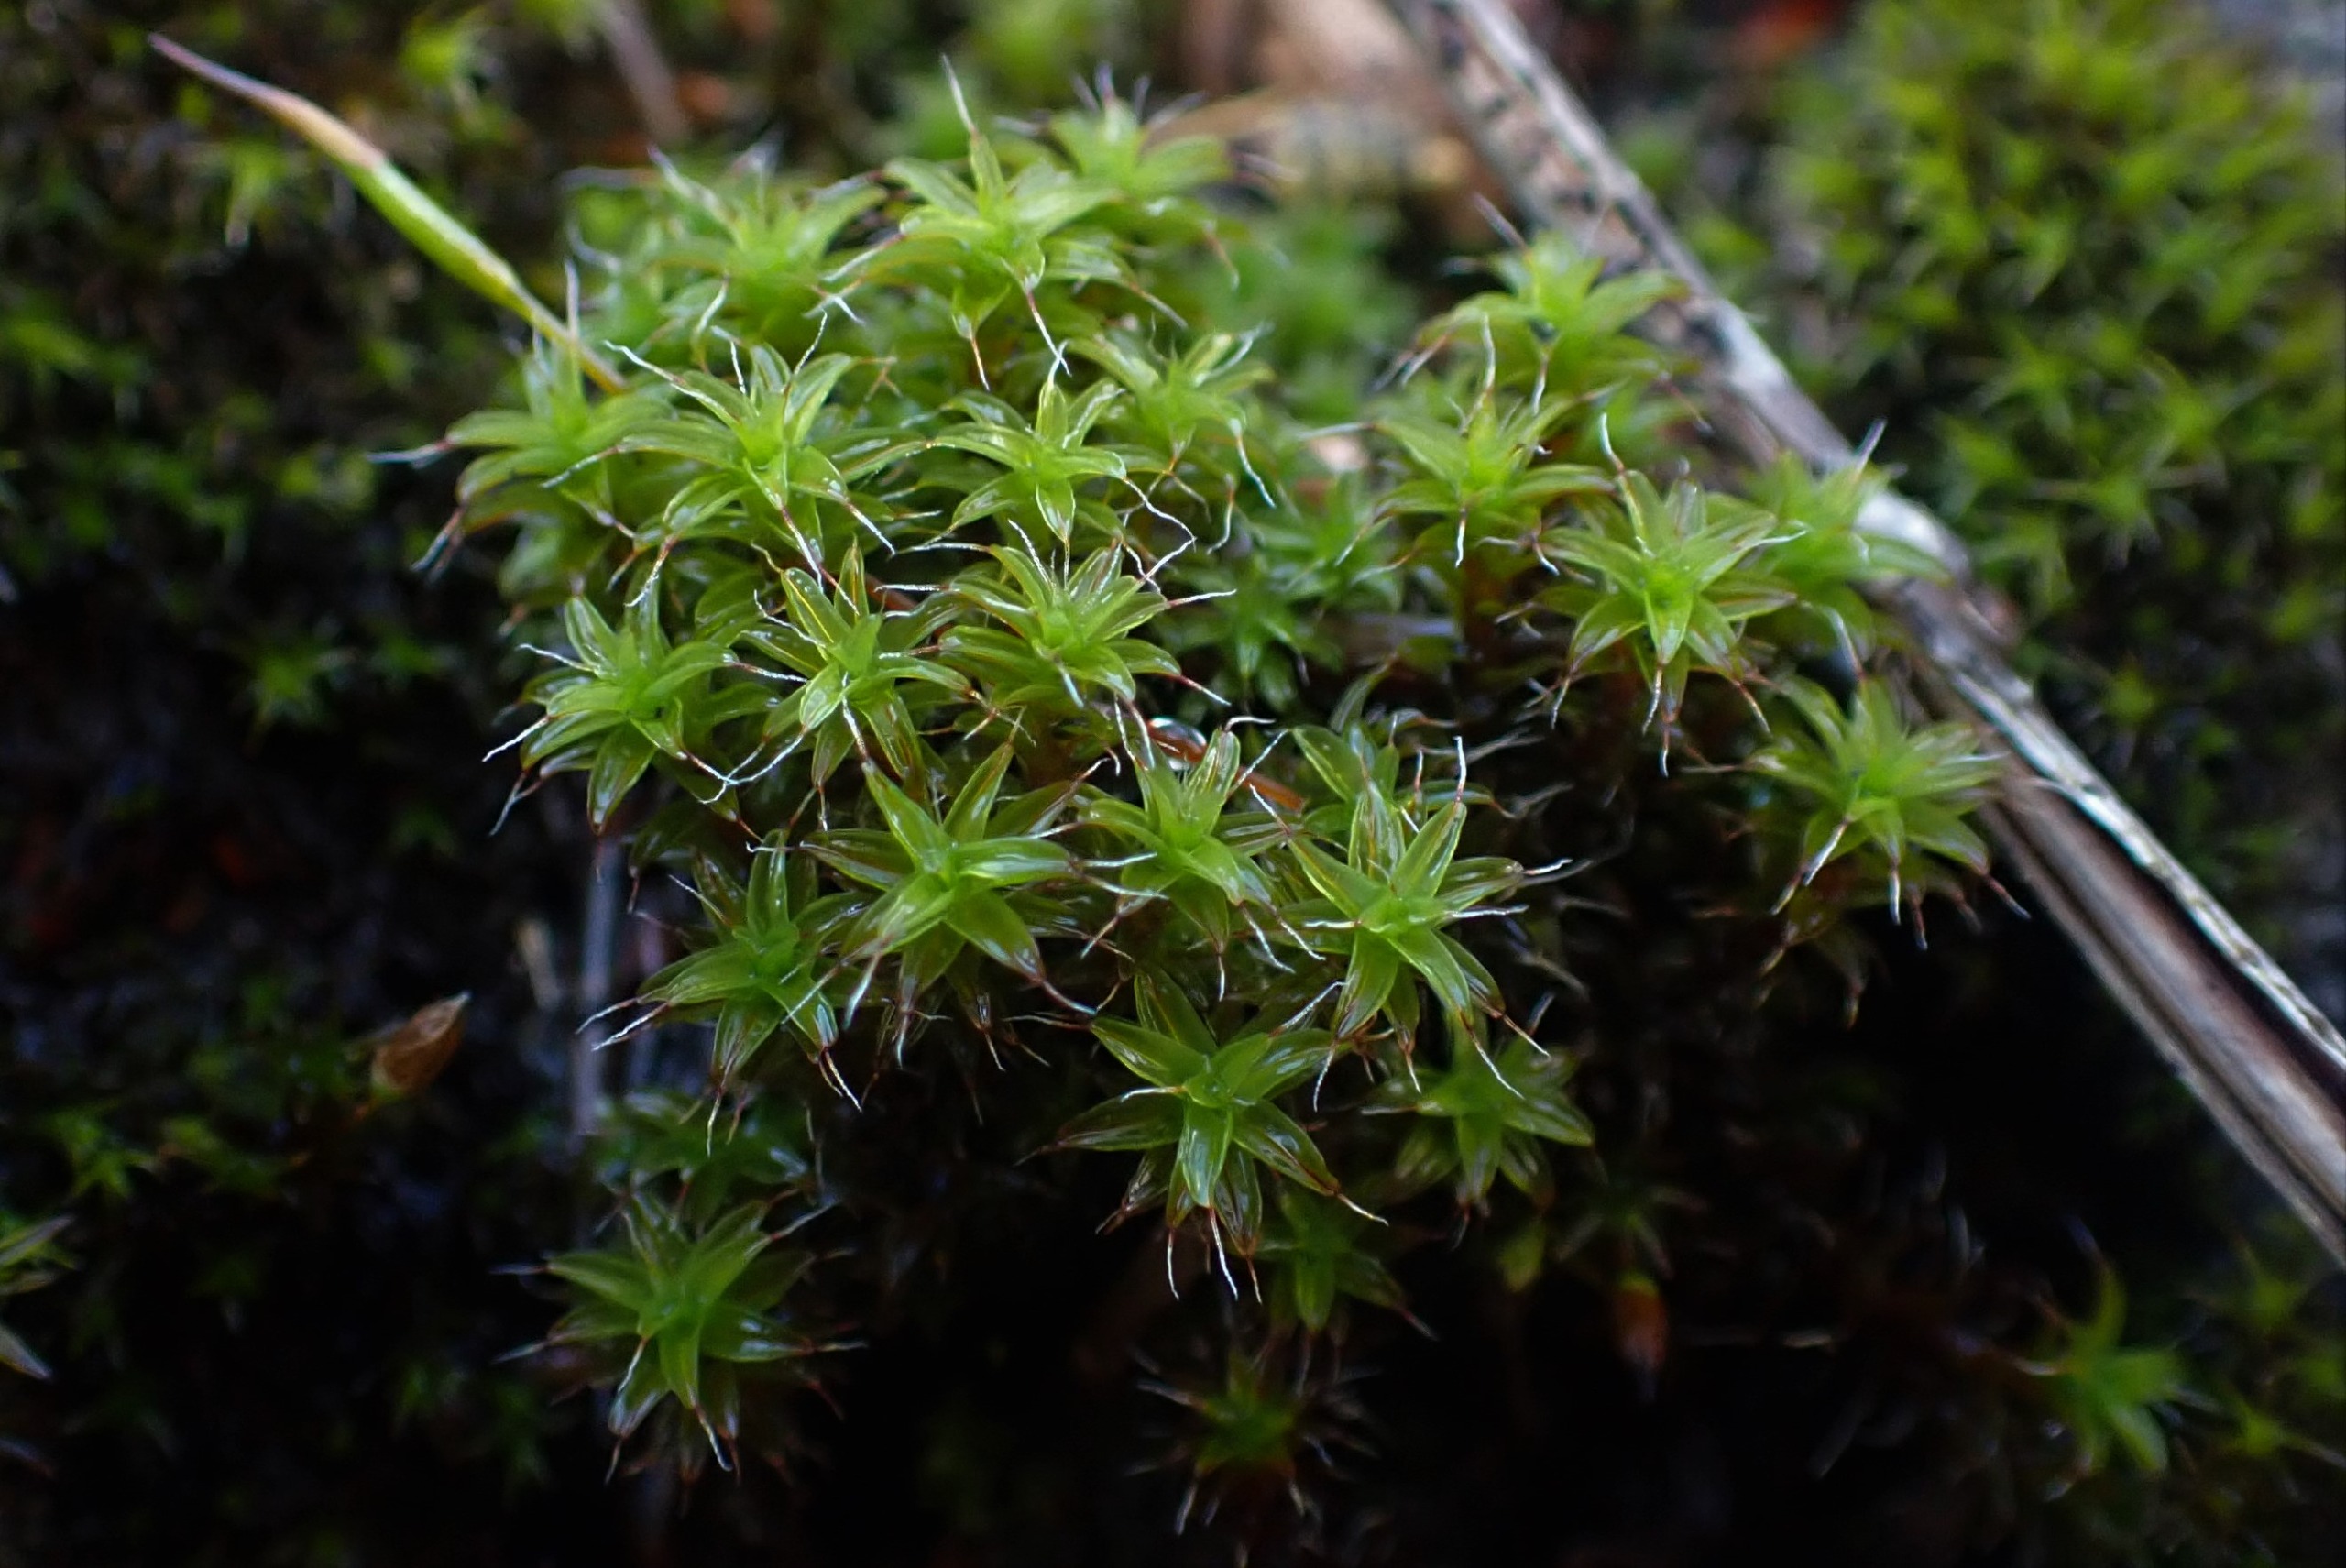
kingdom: Plantae
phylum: Bryophyta
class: Bryopsida
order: Pottiales
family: Pottiaceae
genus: Syntrichia
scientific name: Syntrichia ruralis
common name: Tag-hårstjerne
